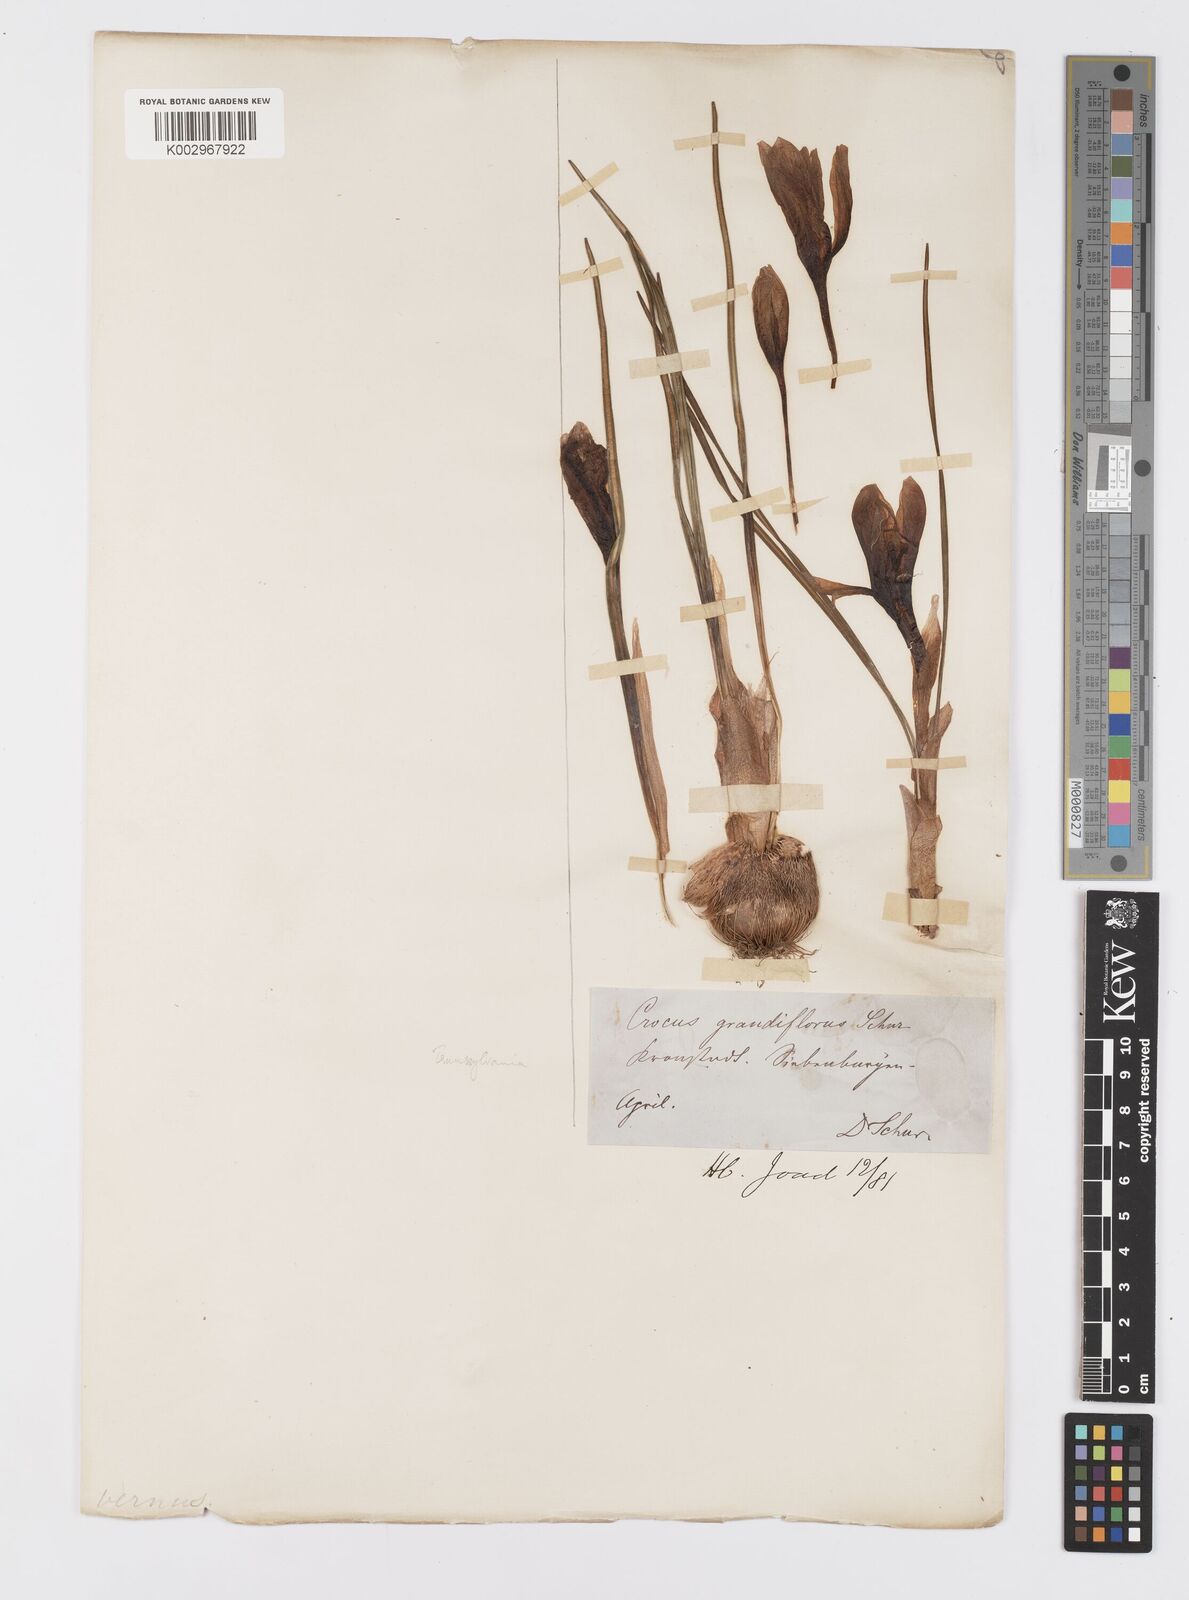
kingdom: Plantae
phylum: Tracheophyta
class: Liliopsida
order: Asparagales
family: Iridaceae
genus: Crocus
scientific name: Crocus
